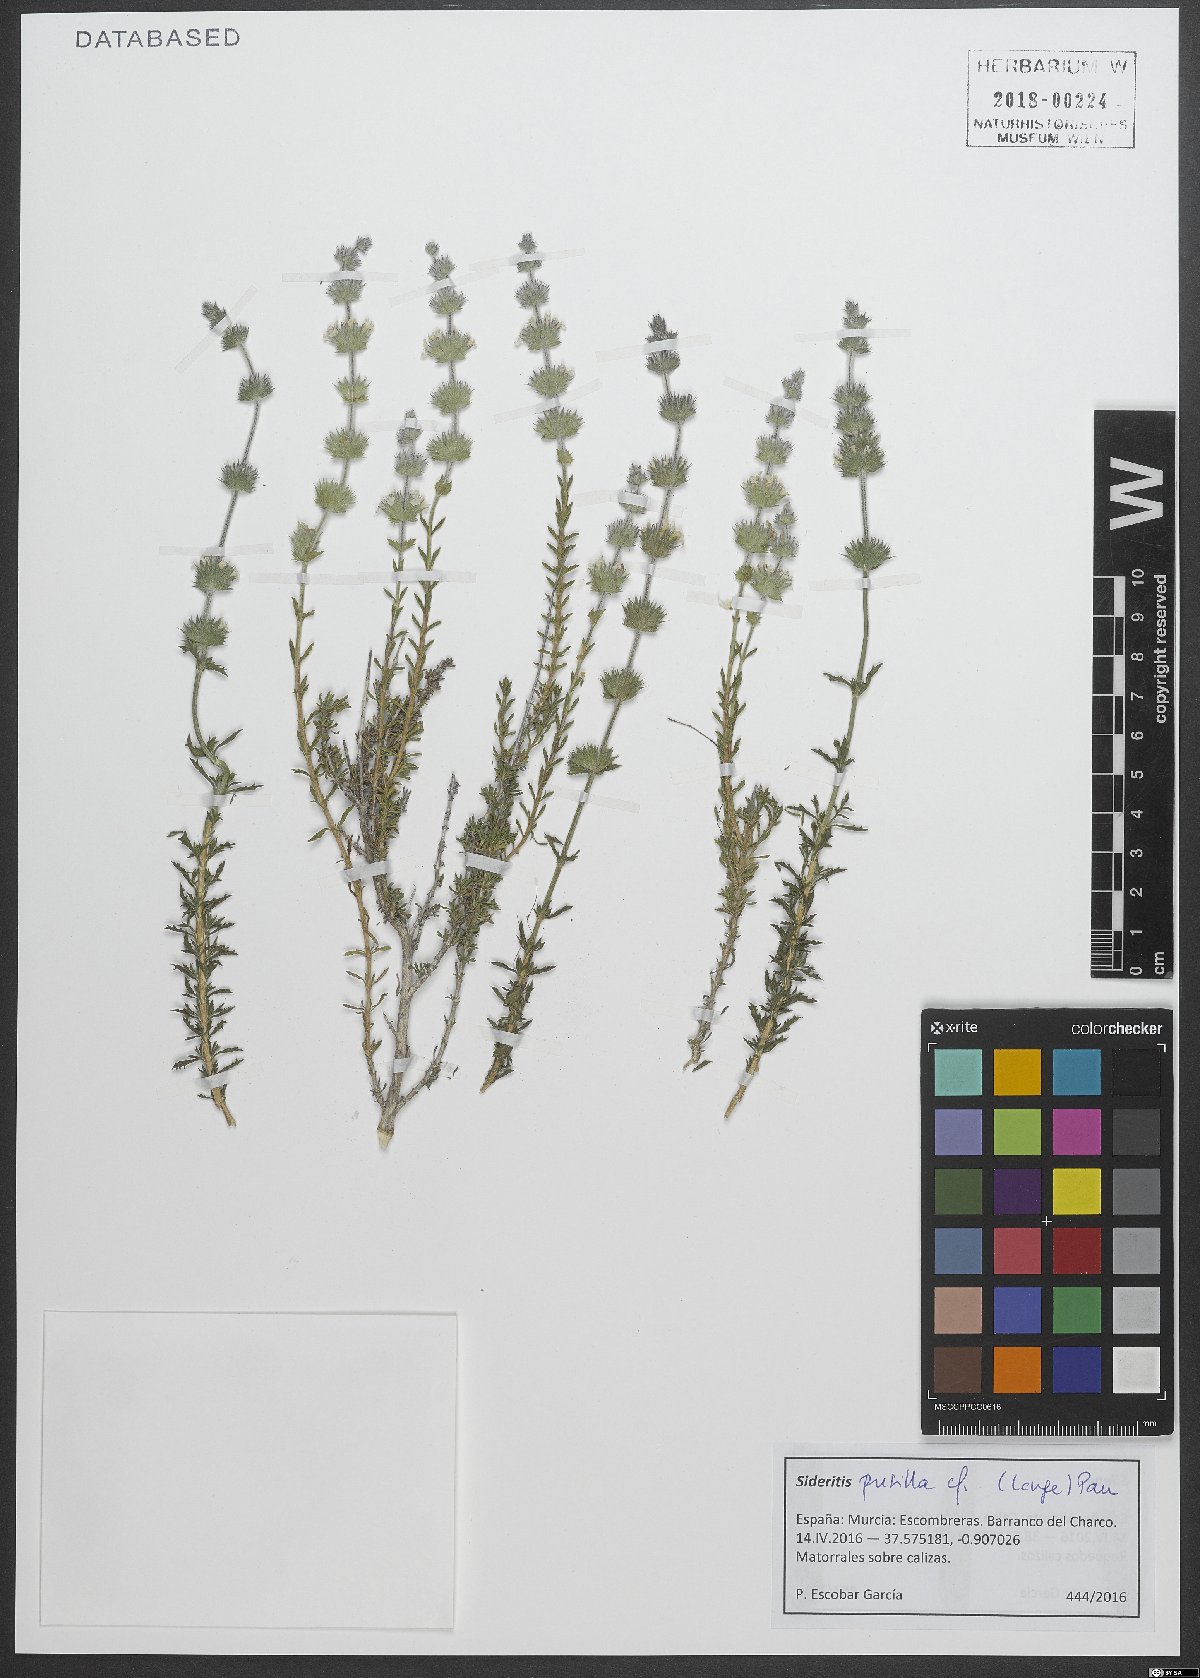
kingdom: Plantae
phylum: Tracheophyta
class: Magnoliopsida
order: Lamiales
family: Lamiaceae
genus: Sideritis
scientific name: Sideritis pusilla
